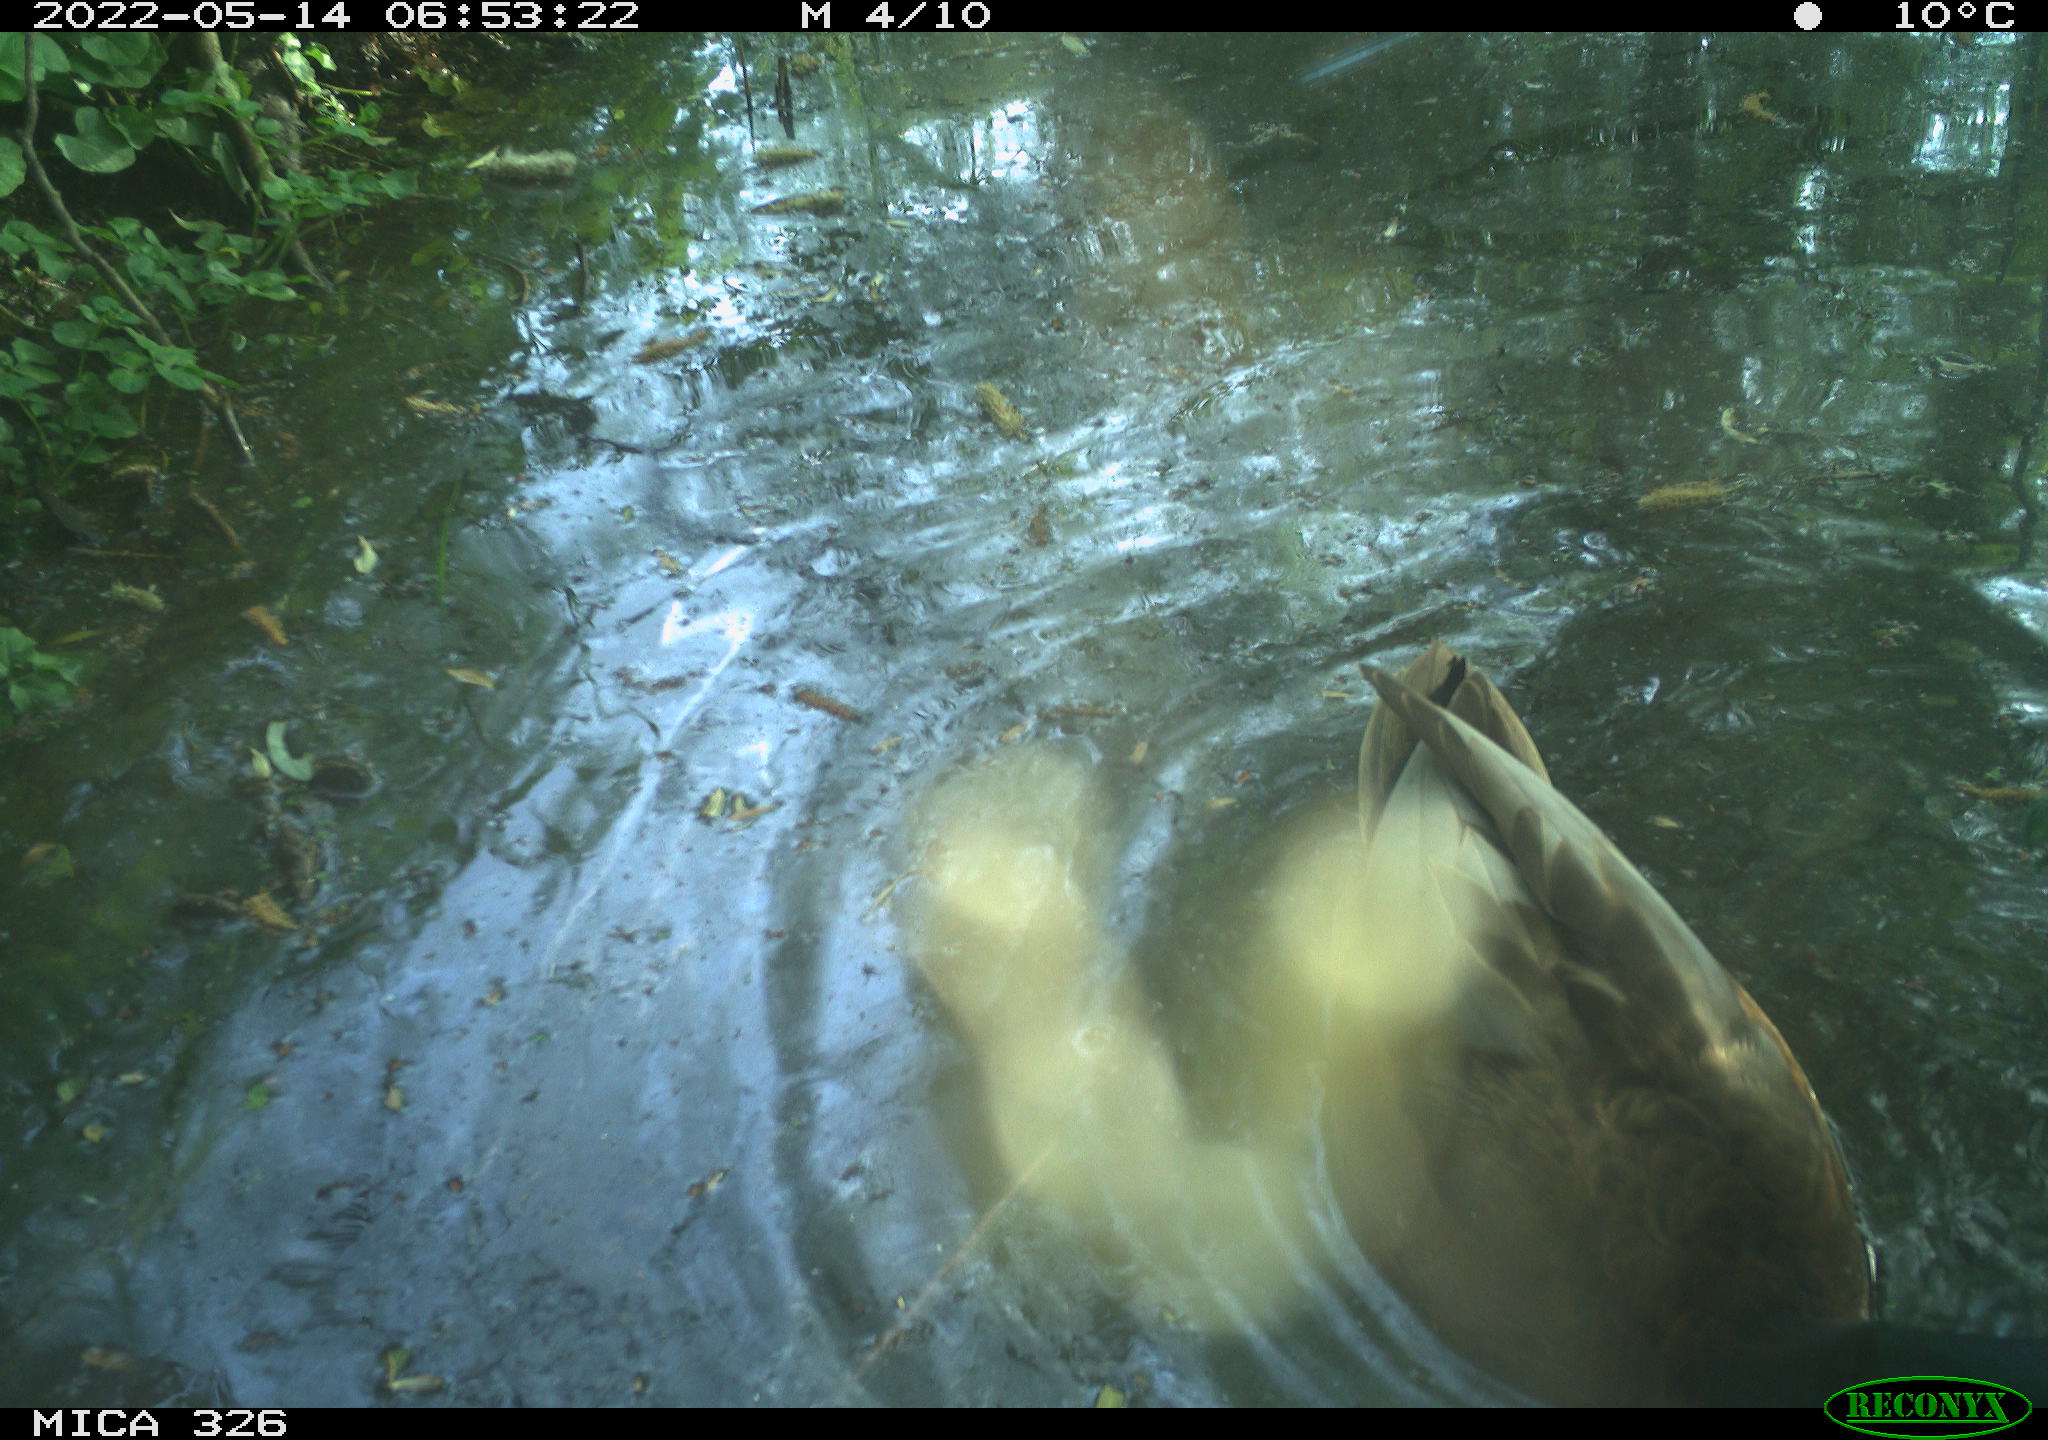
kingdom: Animalia
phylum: Chordata
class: Aves
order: Anseriformes
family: Anatidae
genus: Anas
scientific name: Anas
